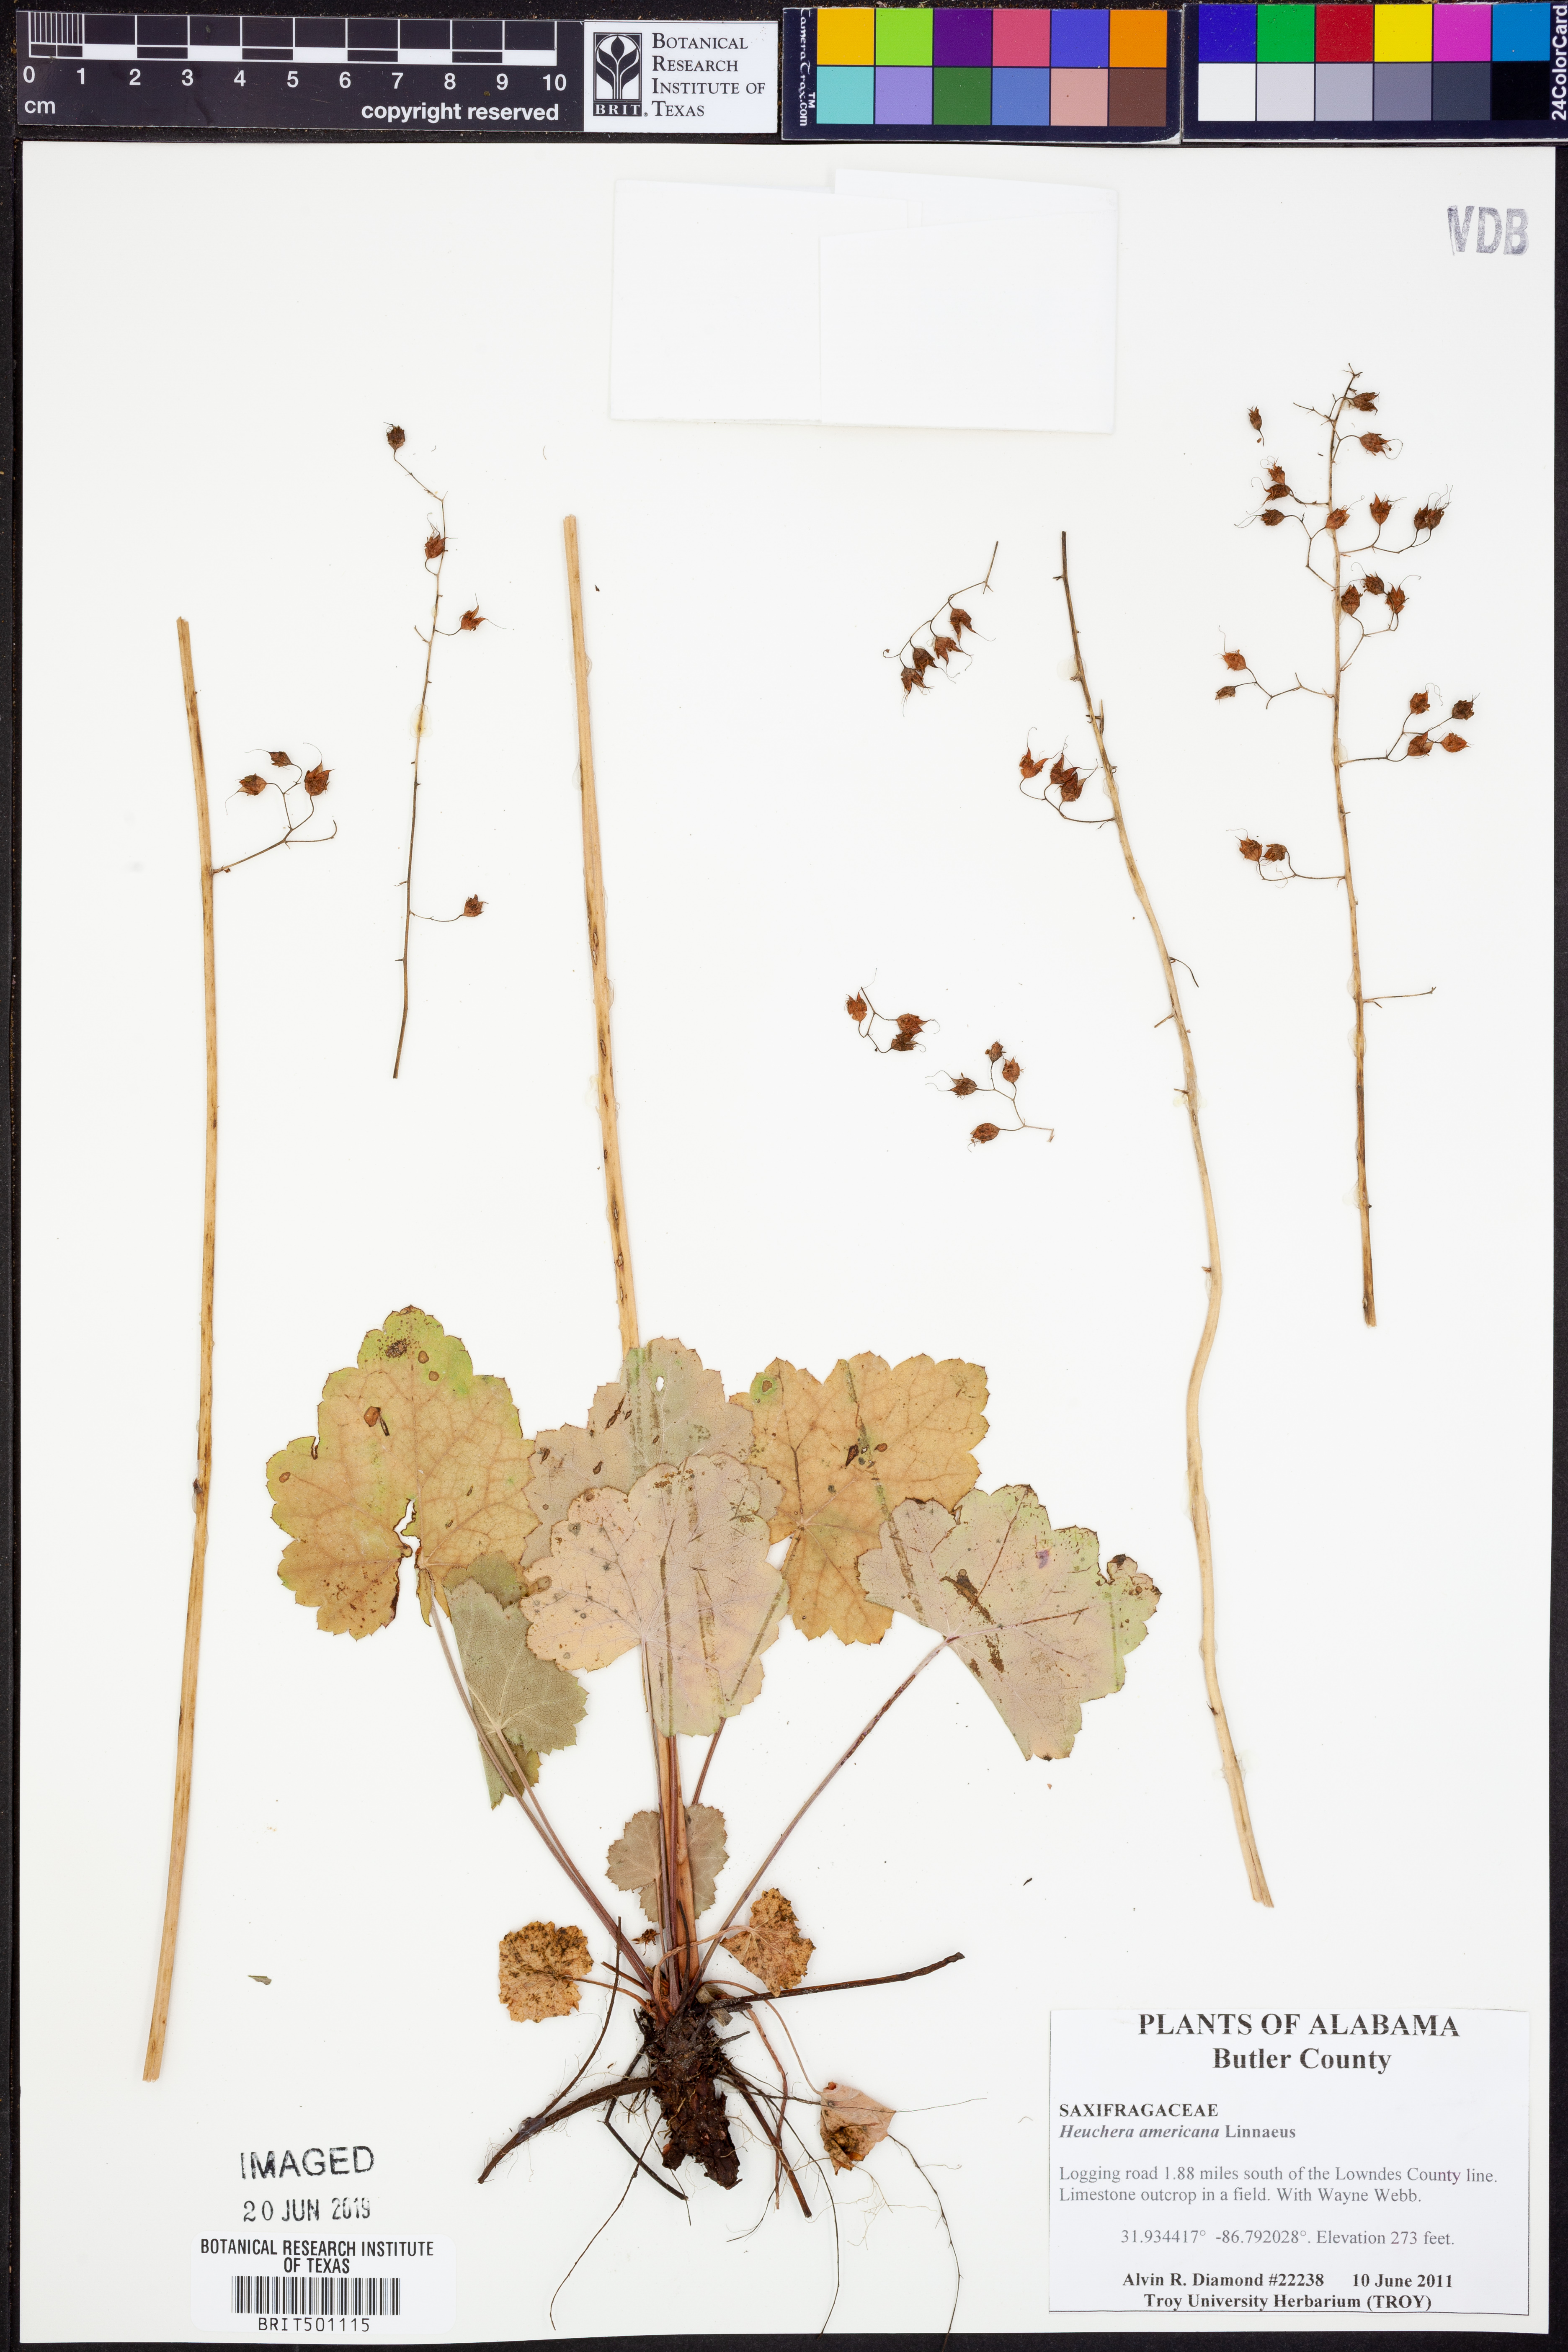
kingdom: Plantae
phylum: Tracheophyta
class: Magnoliopsida
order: Saxifragales
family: Saxifragaceae
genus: Heuchera
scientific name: Heuchera americana
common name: Alumroot
